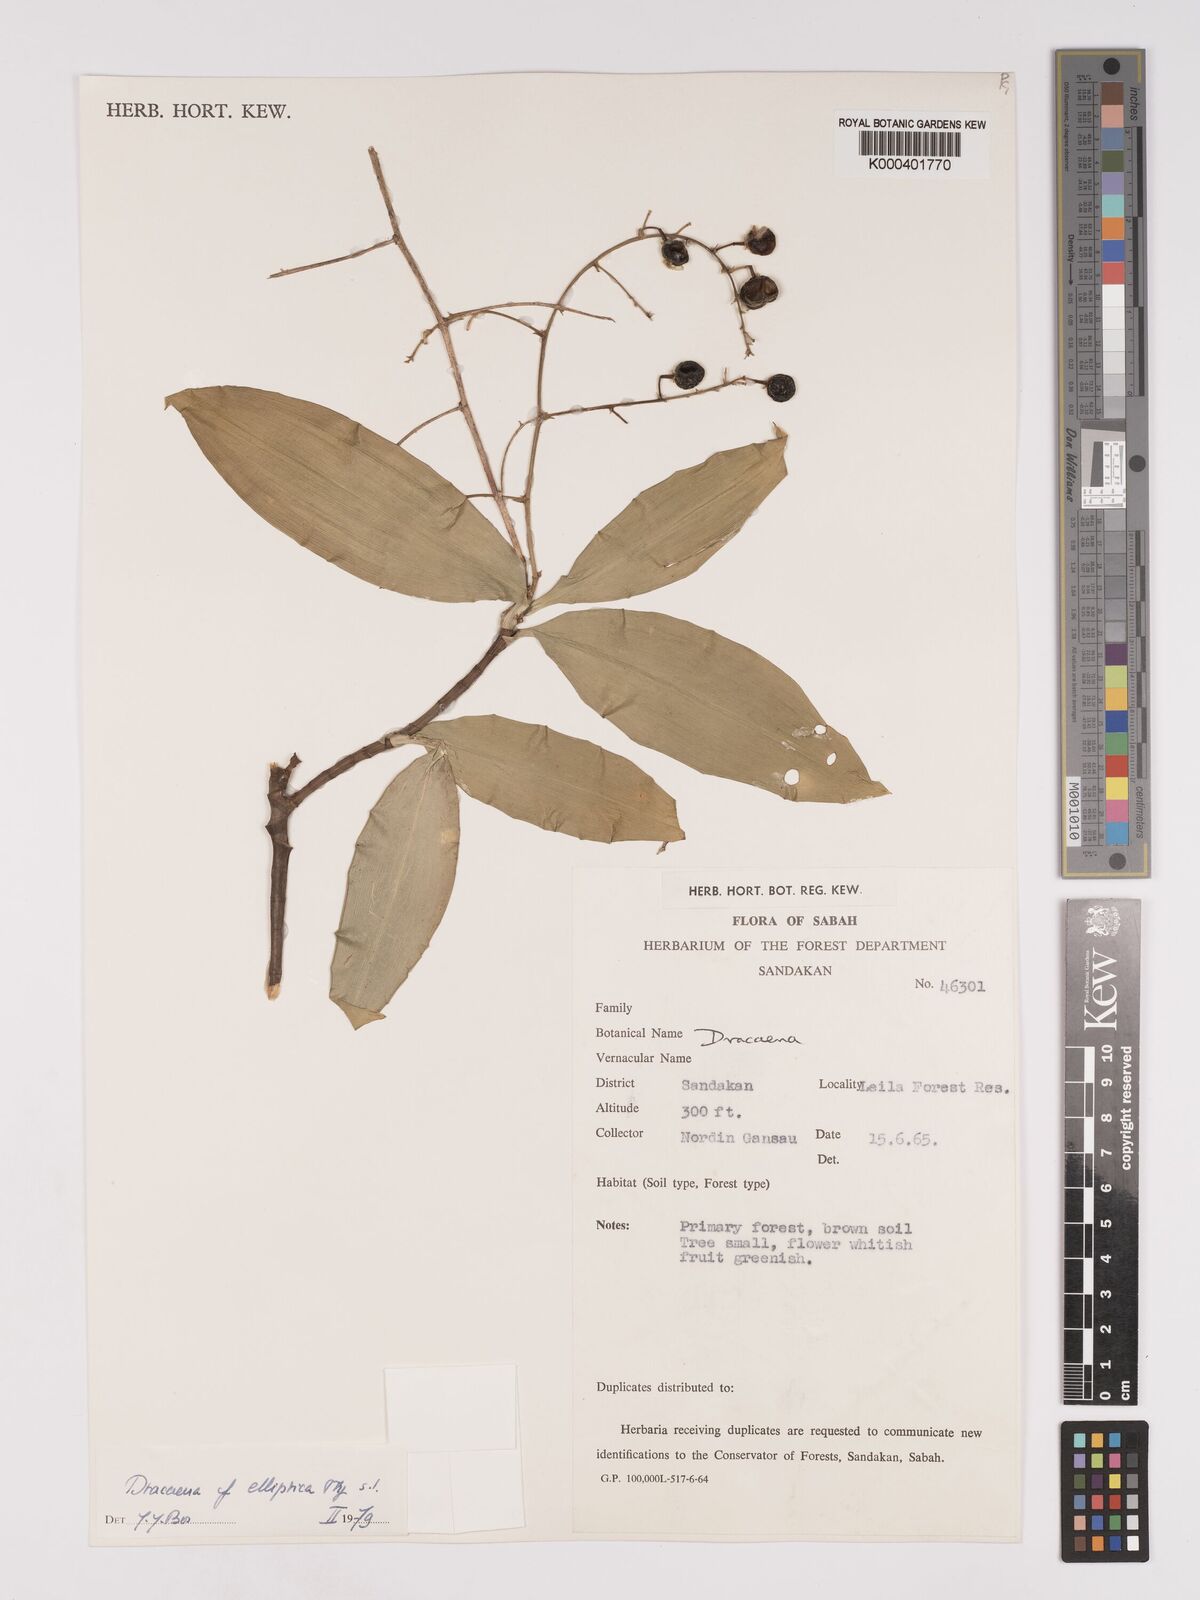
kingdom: Plantae
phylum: Tracheophyta
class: Liliopsida
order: Asparagales
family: Asparagaceae
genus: Dracaena
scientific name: Dracaena elliptica
